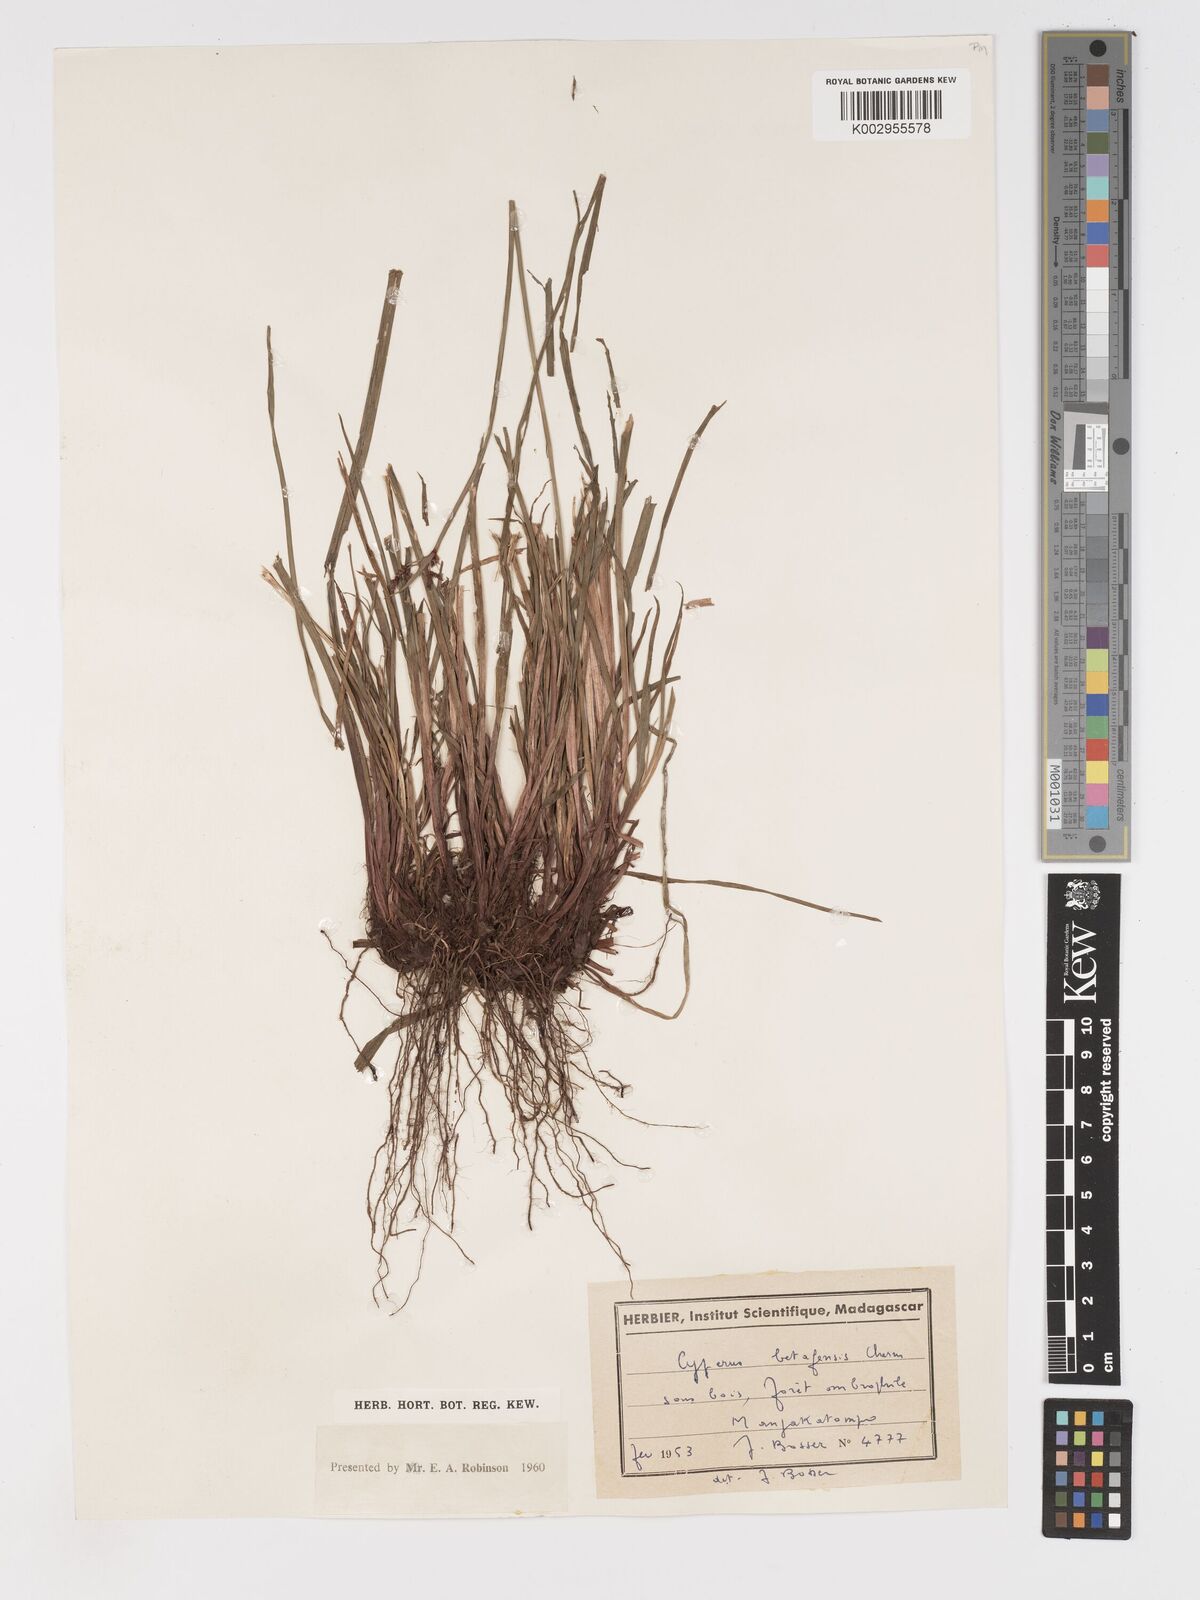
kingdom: Plantae
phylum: Tracheophyta
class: Liliopsida
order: Poales
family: Cyperaceae
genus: Cyperus
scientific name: Cyperus betafensis
